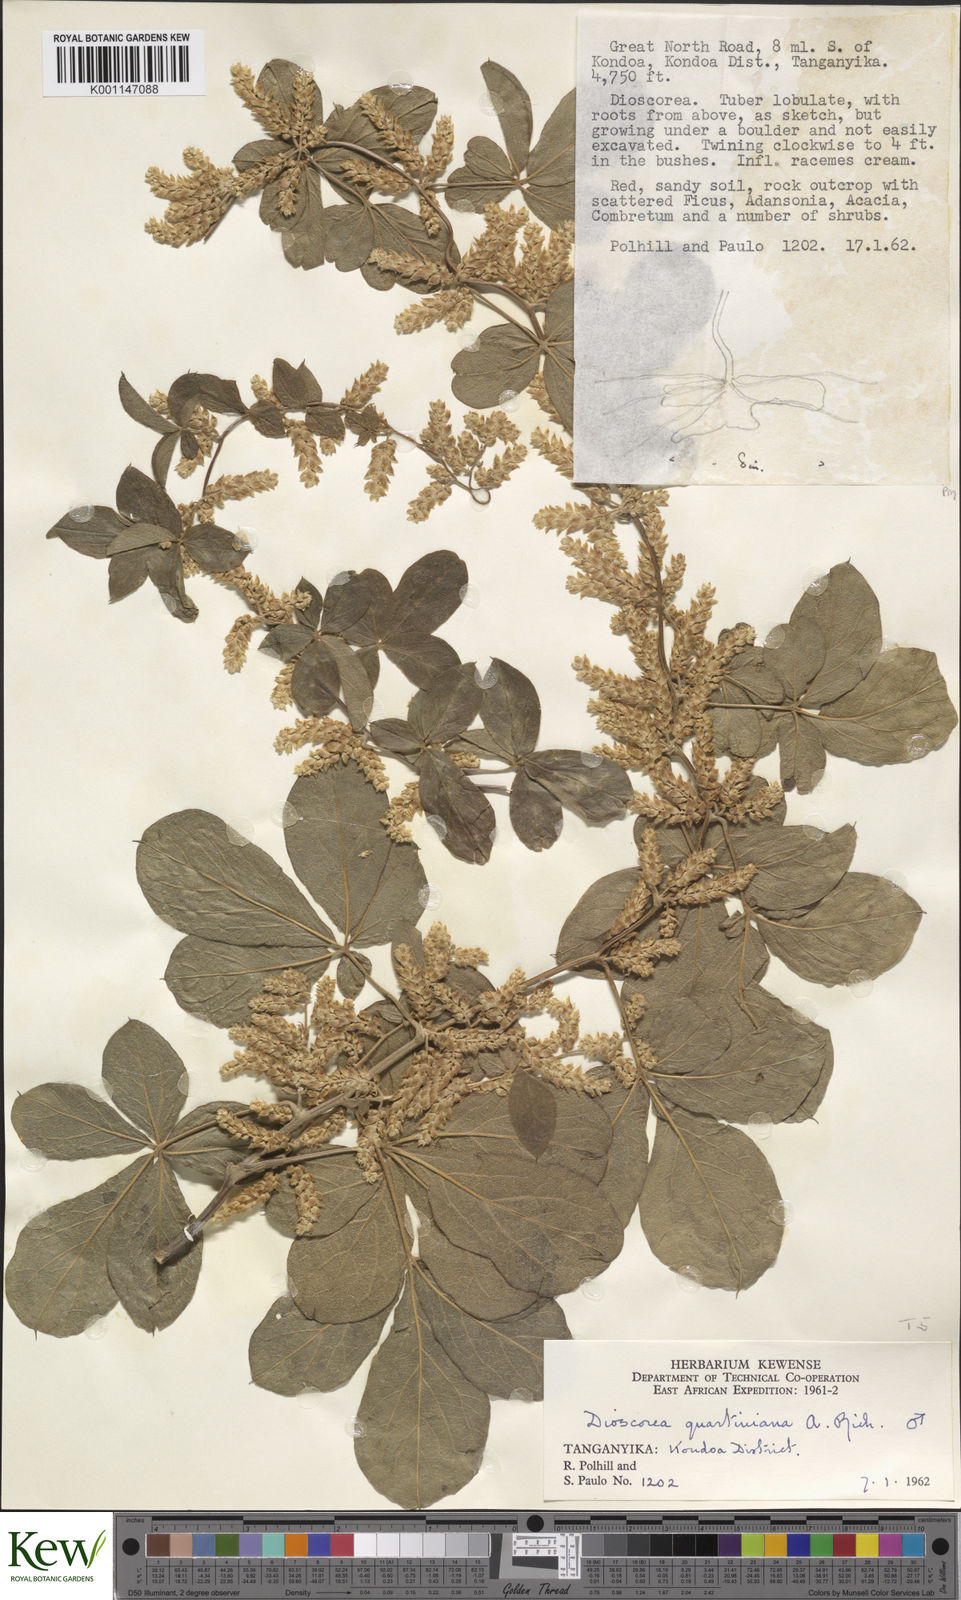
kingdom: Plantae
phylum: Tracheophyta
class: Liliopsida
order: Dioscoreales
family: Dioscoreaceae
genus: Dioscorea
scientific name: Dioscorea quartiniana
